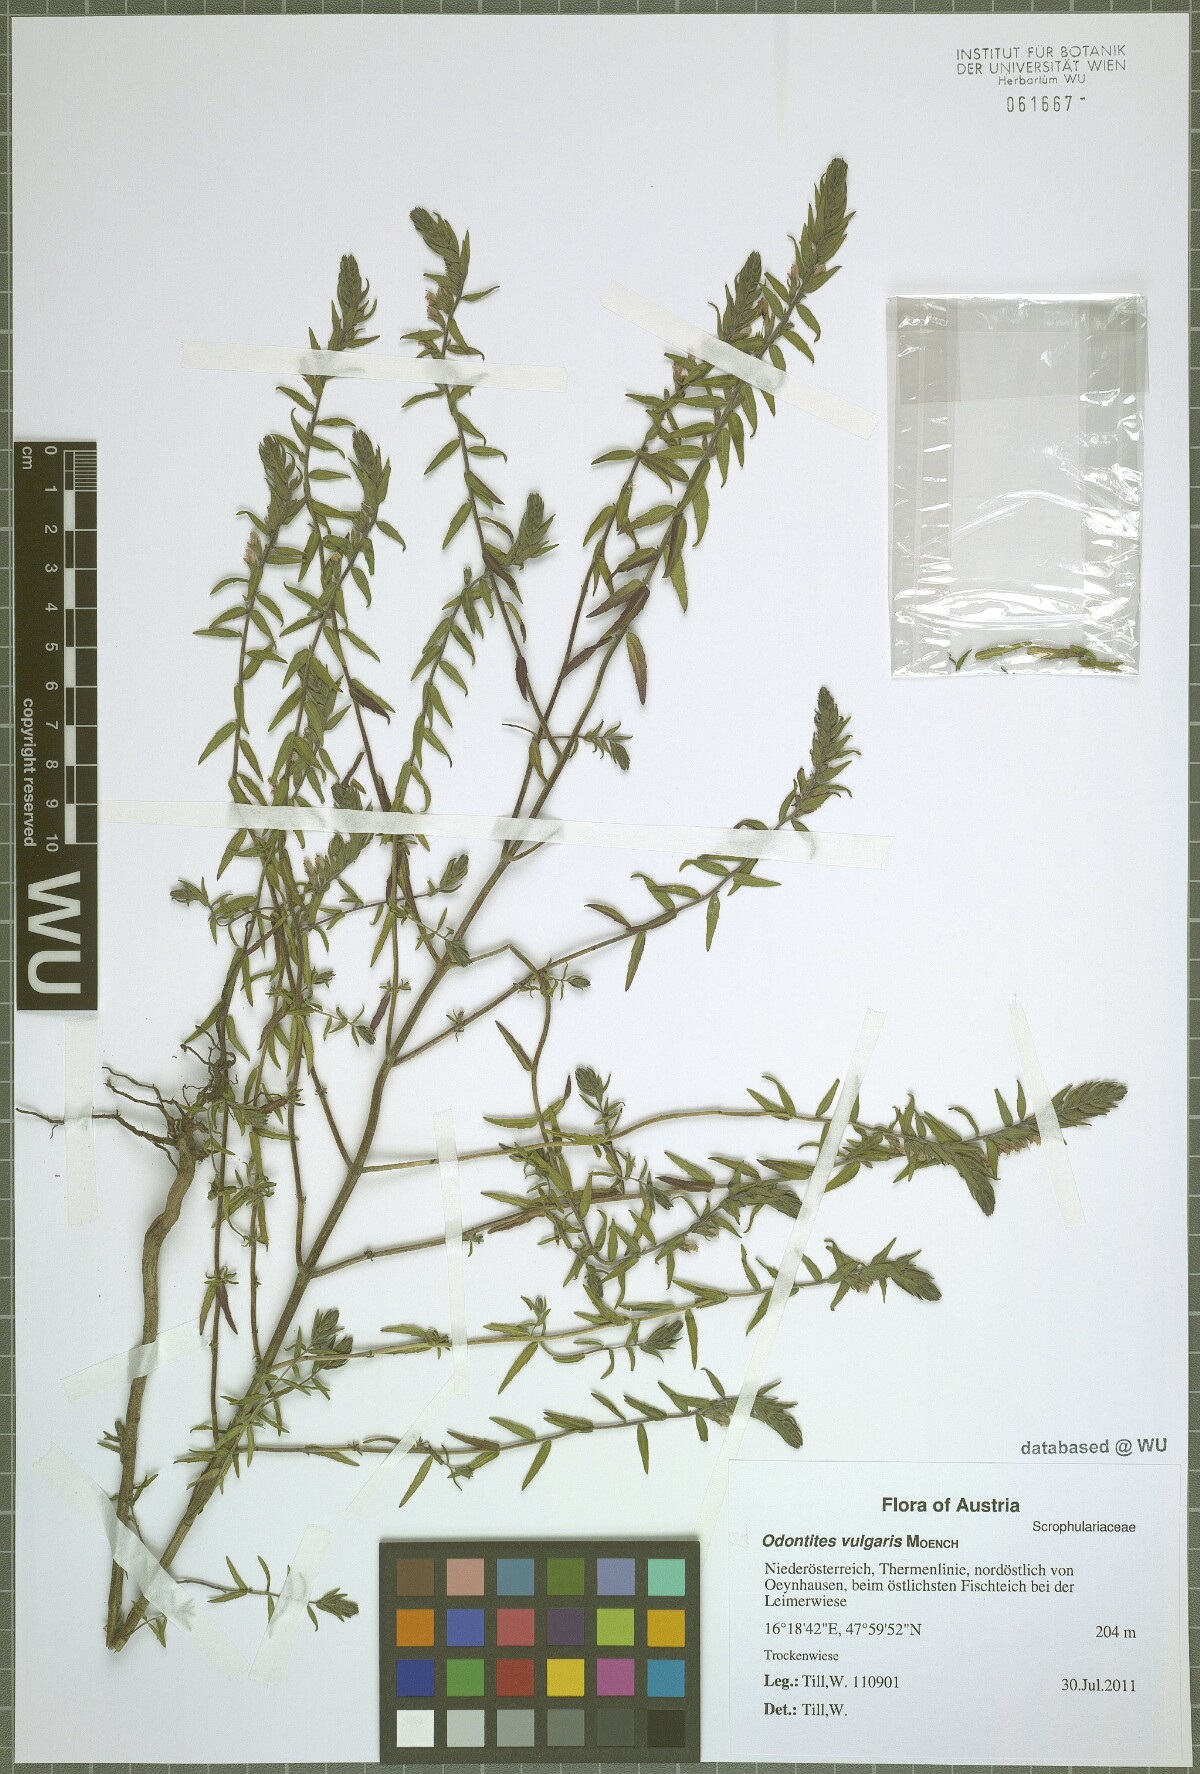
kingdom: Plantae
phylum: Tracheophyta
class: Magnoliopsida
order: Lamiales
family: Orobanchaceae
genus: Odontites
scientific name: Odontites vulgaris
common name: Broomrape
